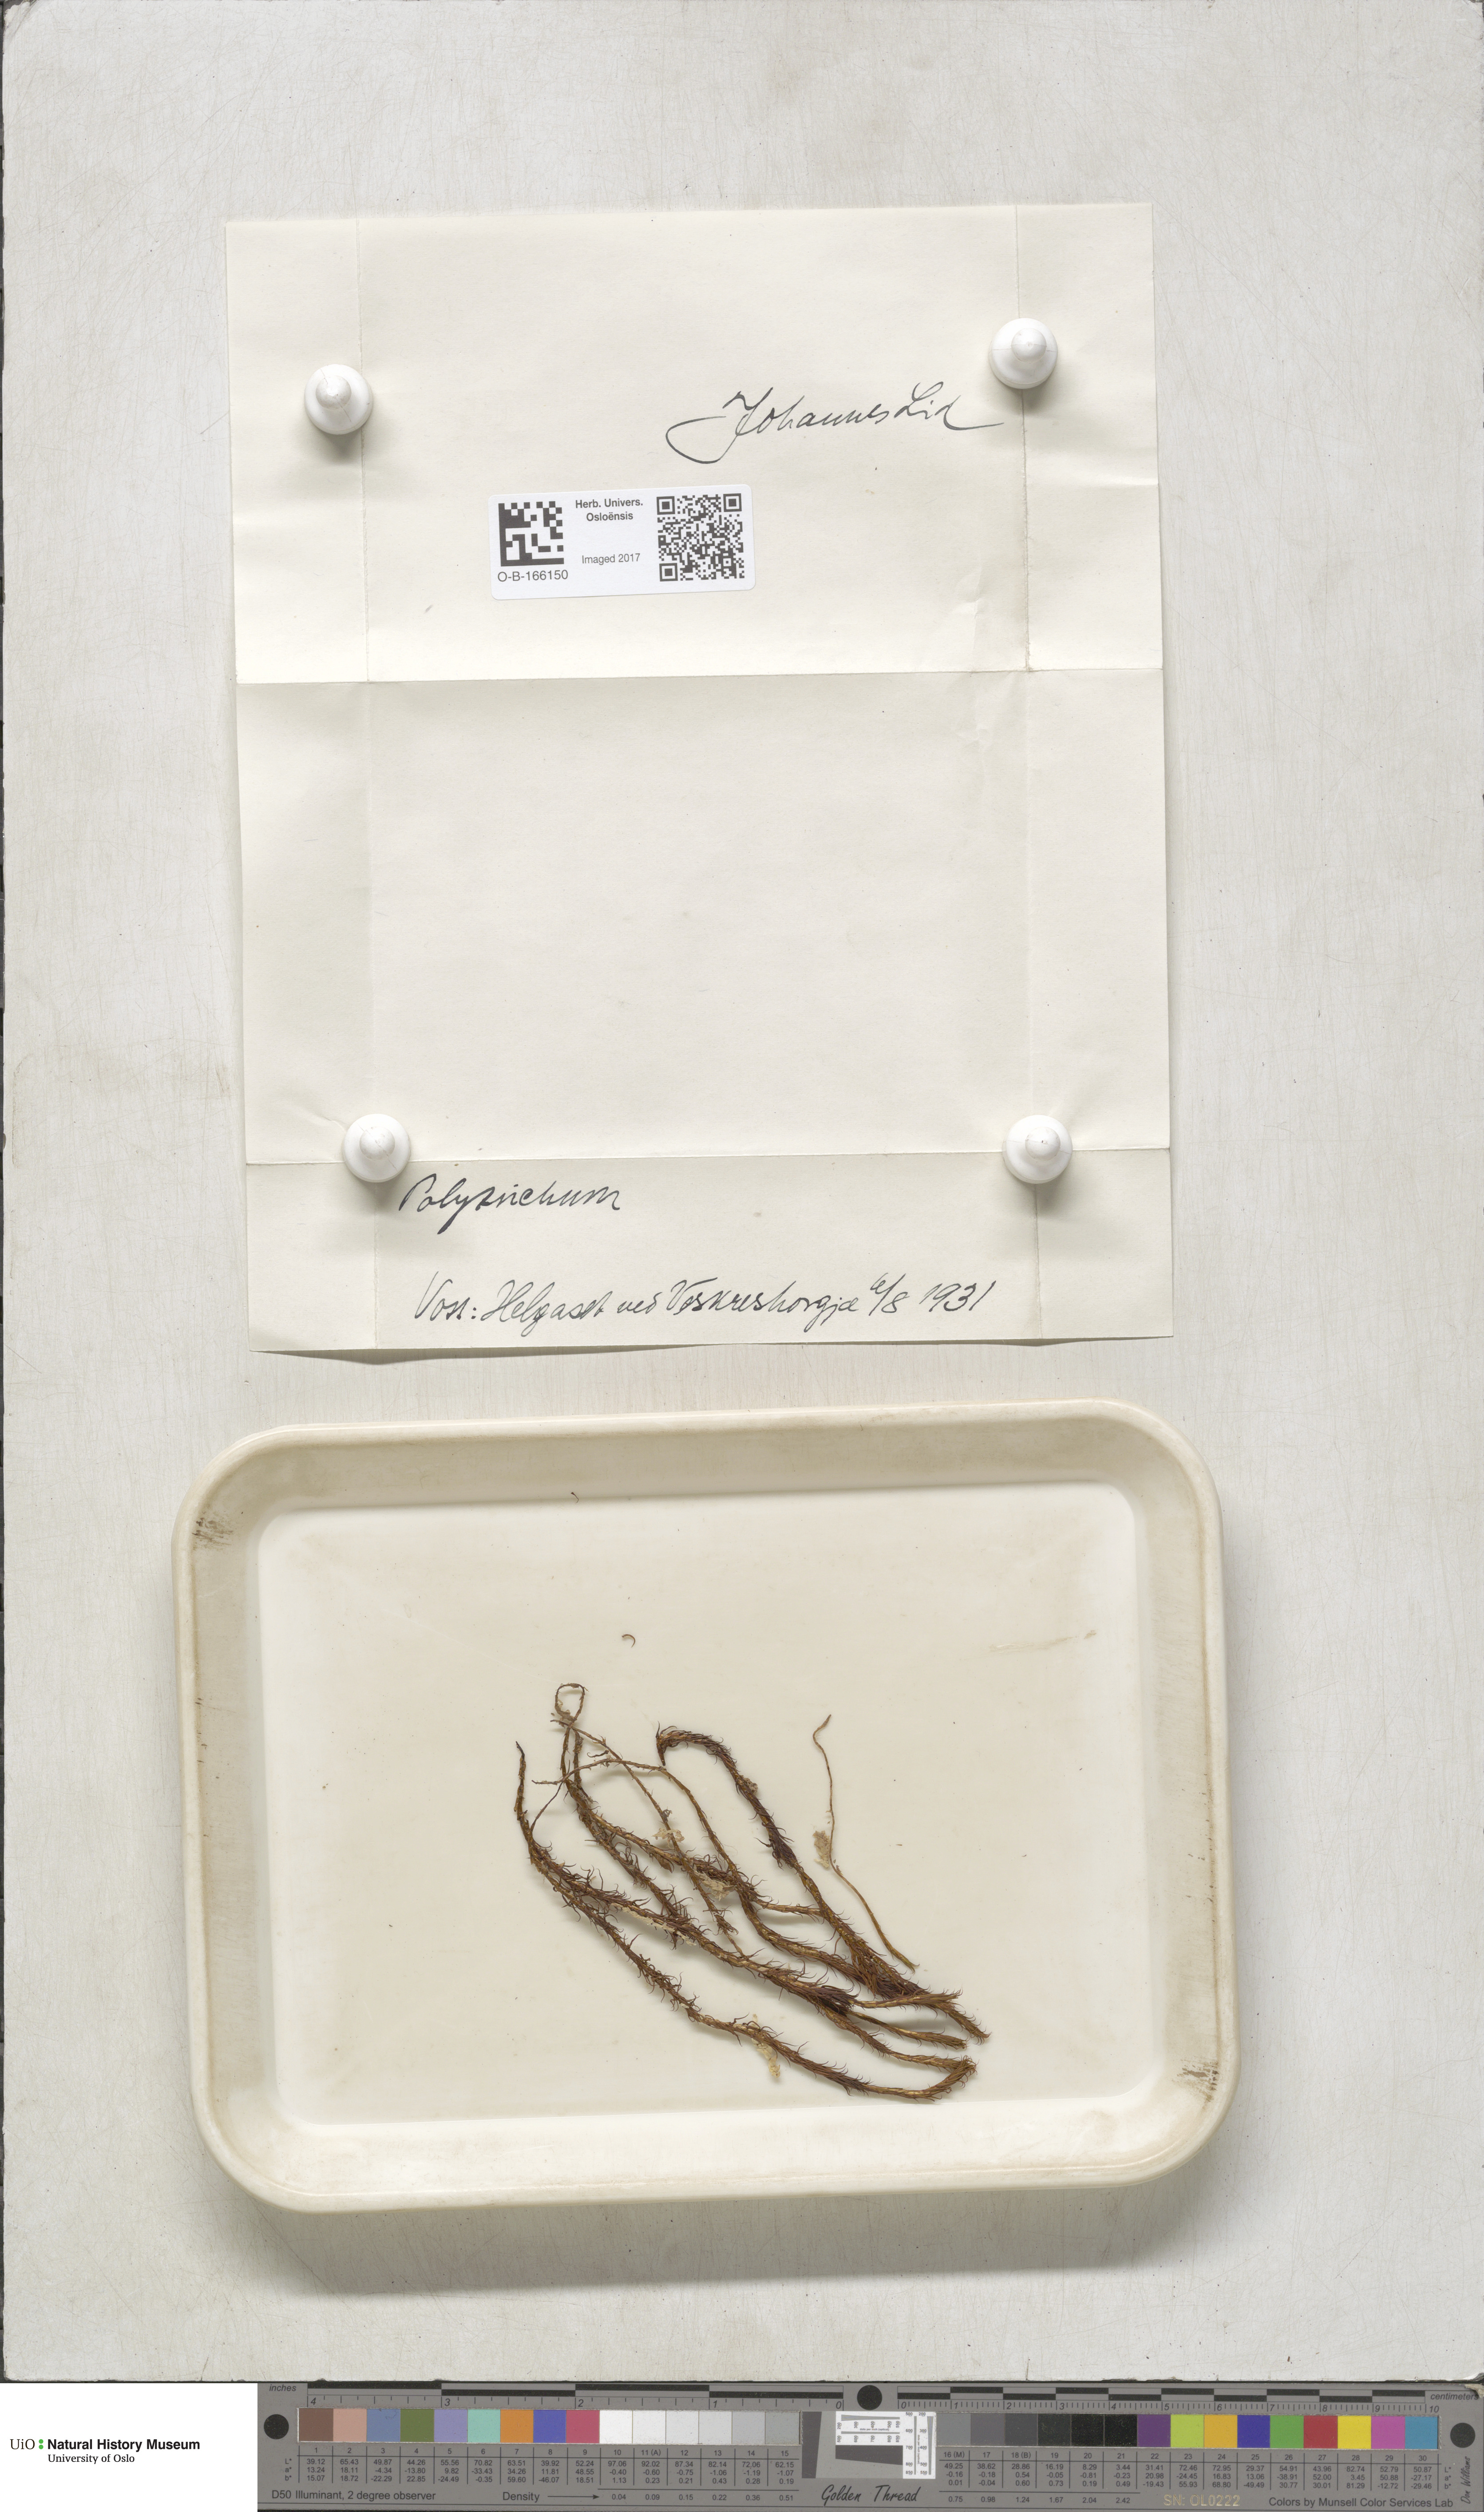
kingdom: Plantae
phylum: Bryophyta
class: Polytrichopsida
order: Polytrichales
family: Polytrichaceae
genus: Polytrichum
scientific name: Polytrichum
